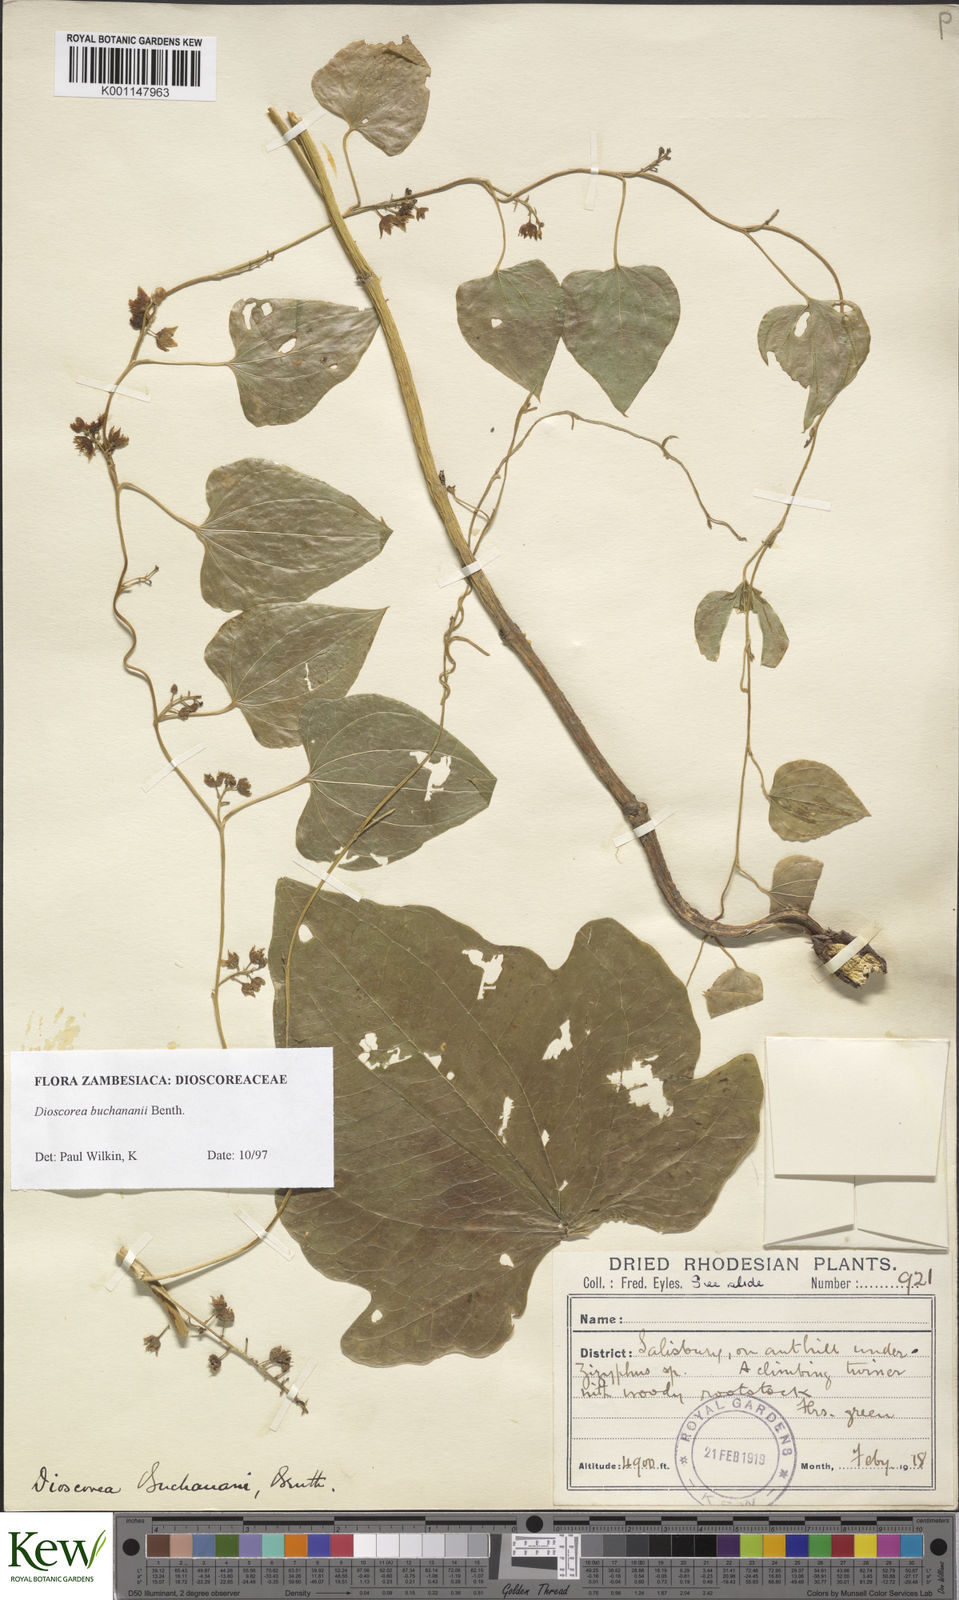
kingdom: Plantae
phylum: Tracheophyta
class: Liliopsida
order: Dioscoreales
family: Dioscoreaceae
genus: Dioscorea
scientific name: Dioscorea buchananii
